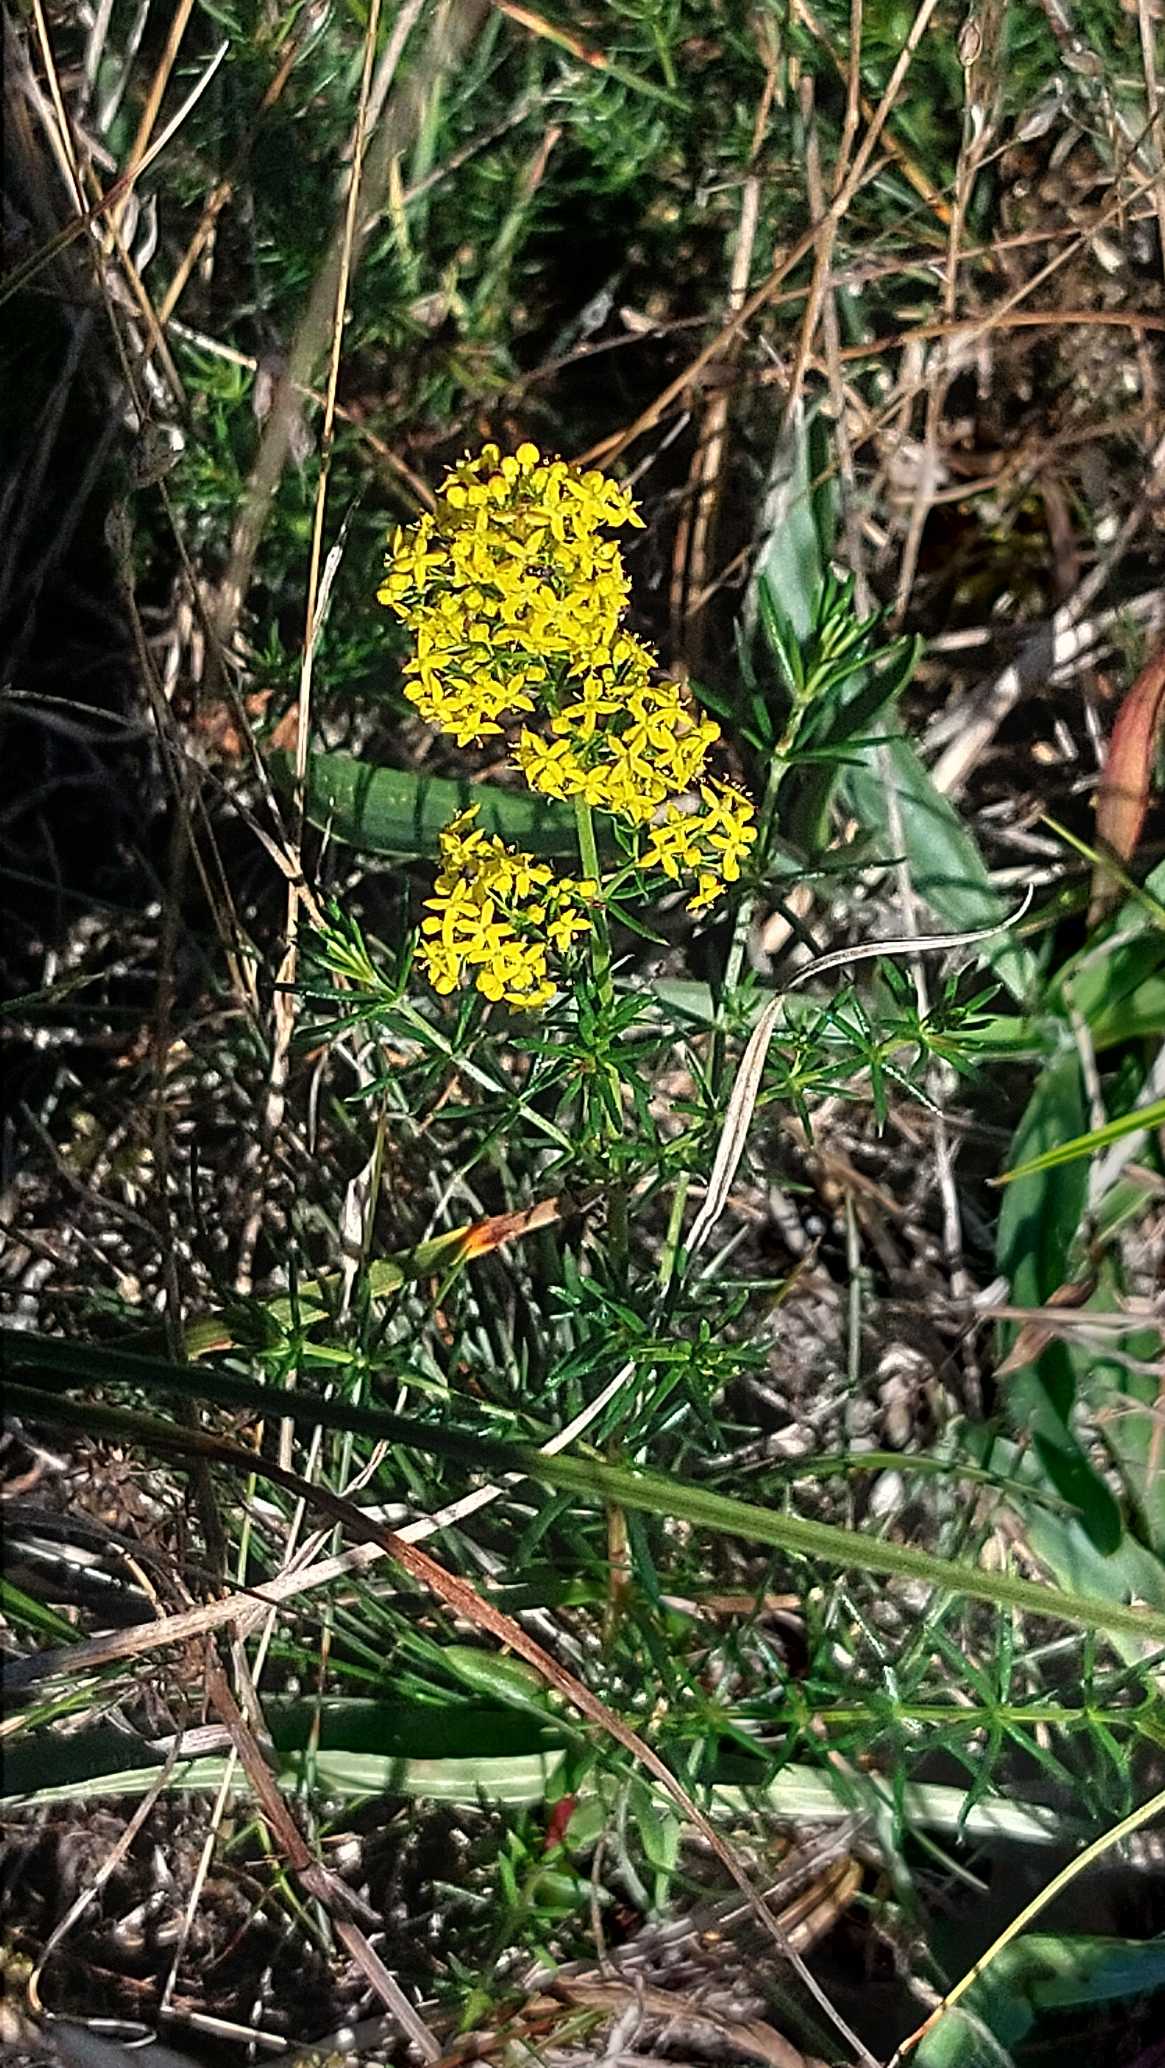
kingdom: Plantae
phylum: Tracheophyta
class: Magnoliopsida
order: Gentianales
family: Rubiaceae
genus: Galium
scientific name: Galium verum
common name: Gul snerre
